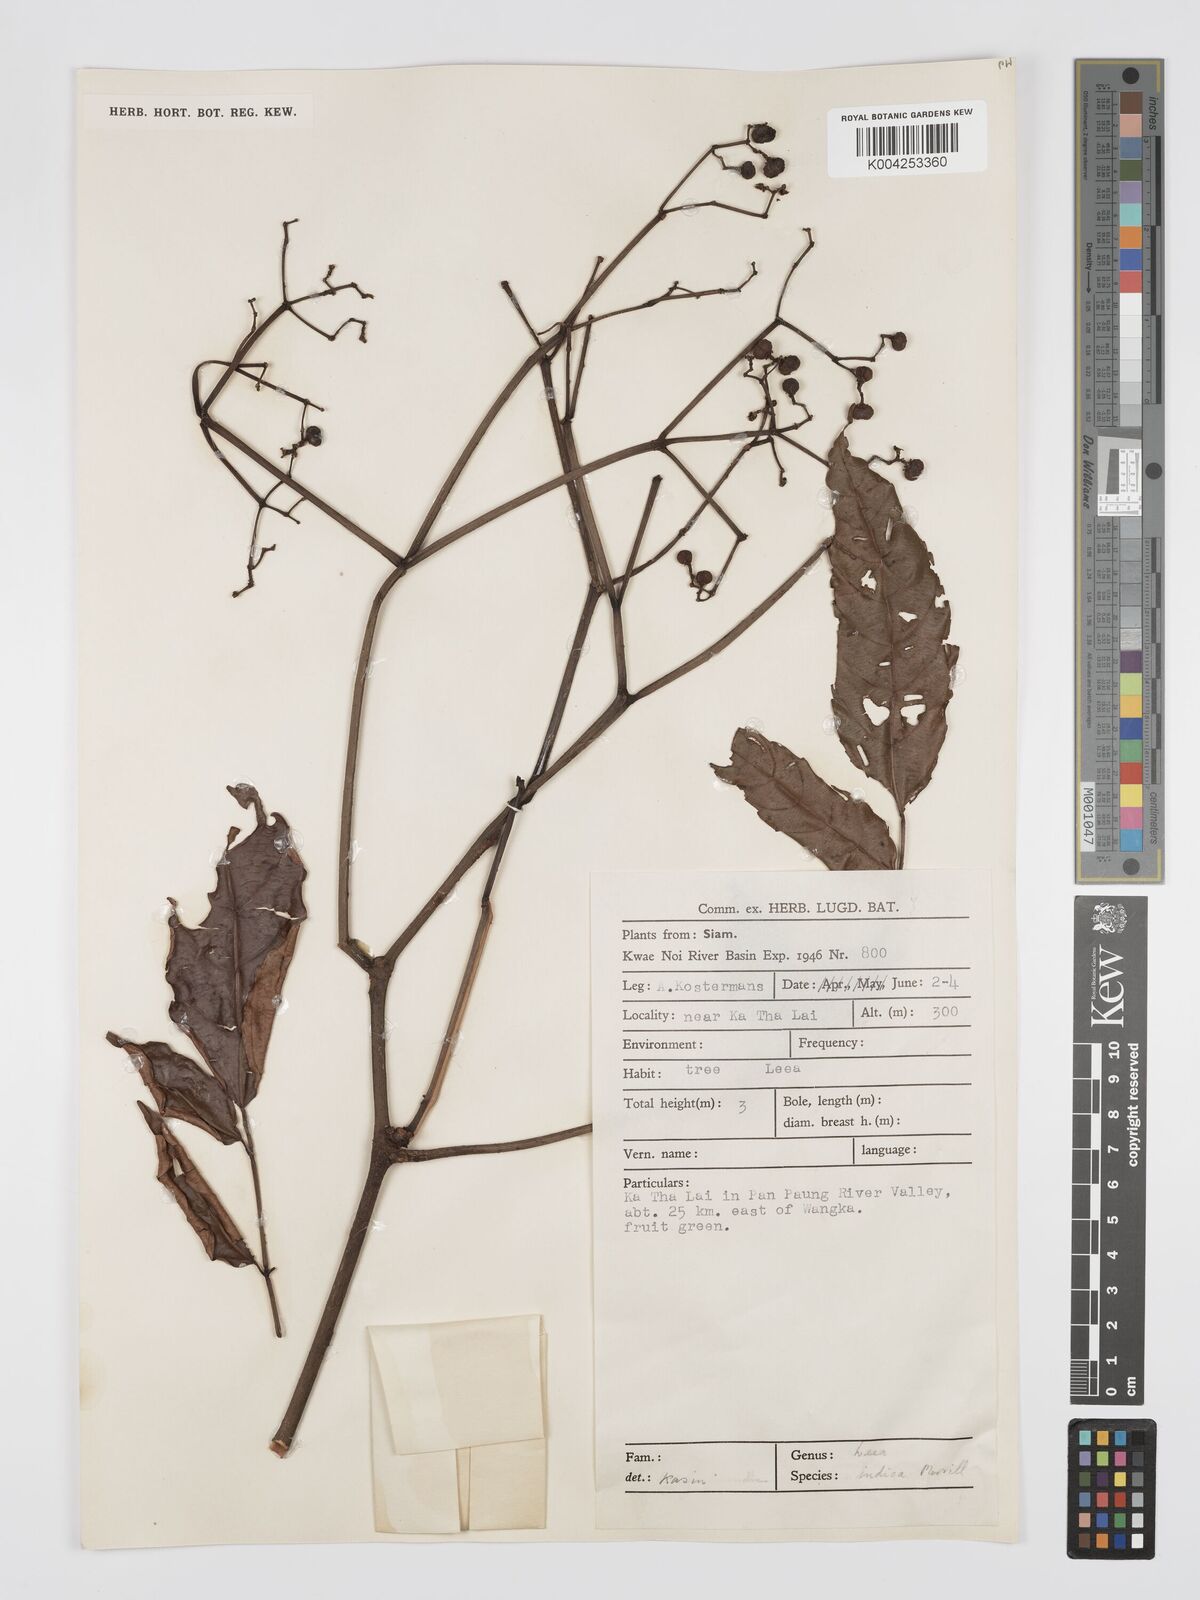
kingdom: Plantae
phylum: Tracheophyta
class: Magnoliopsida
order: Vitales
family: Vitaceae
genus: Leea
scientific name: Leea indica
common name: Bandicoot-berry
